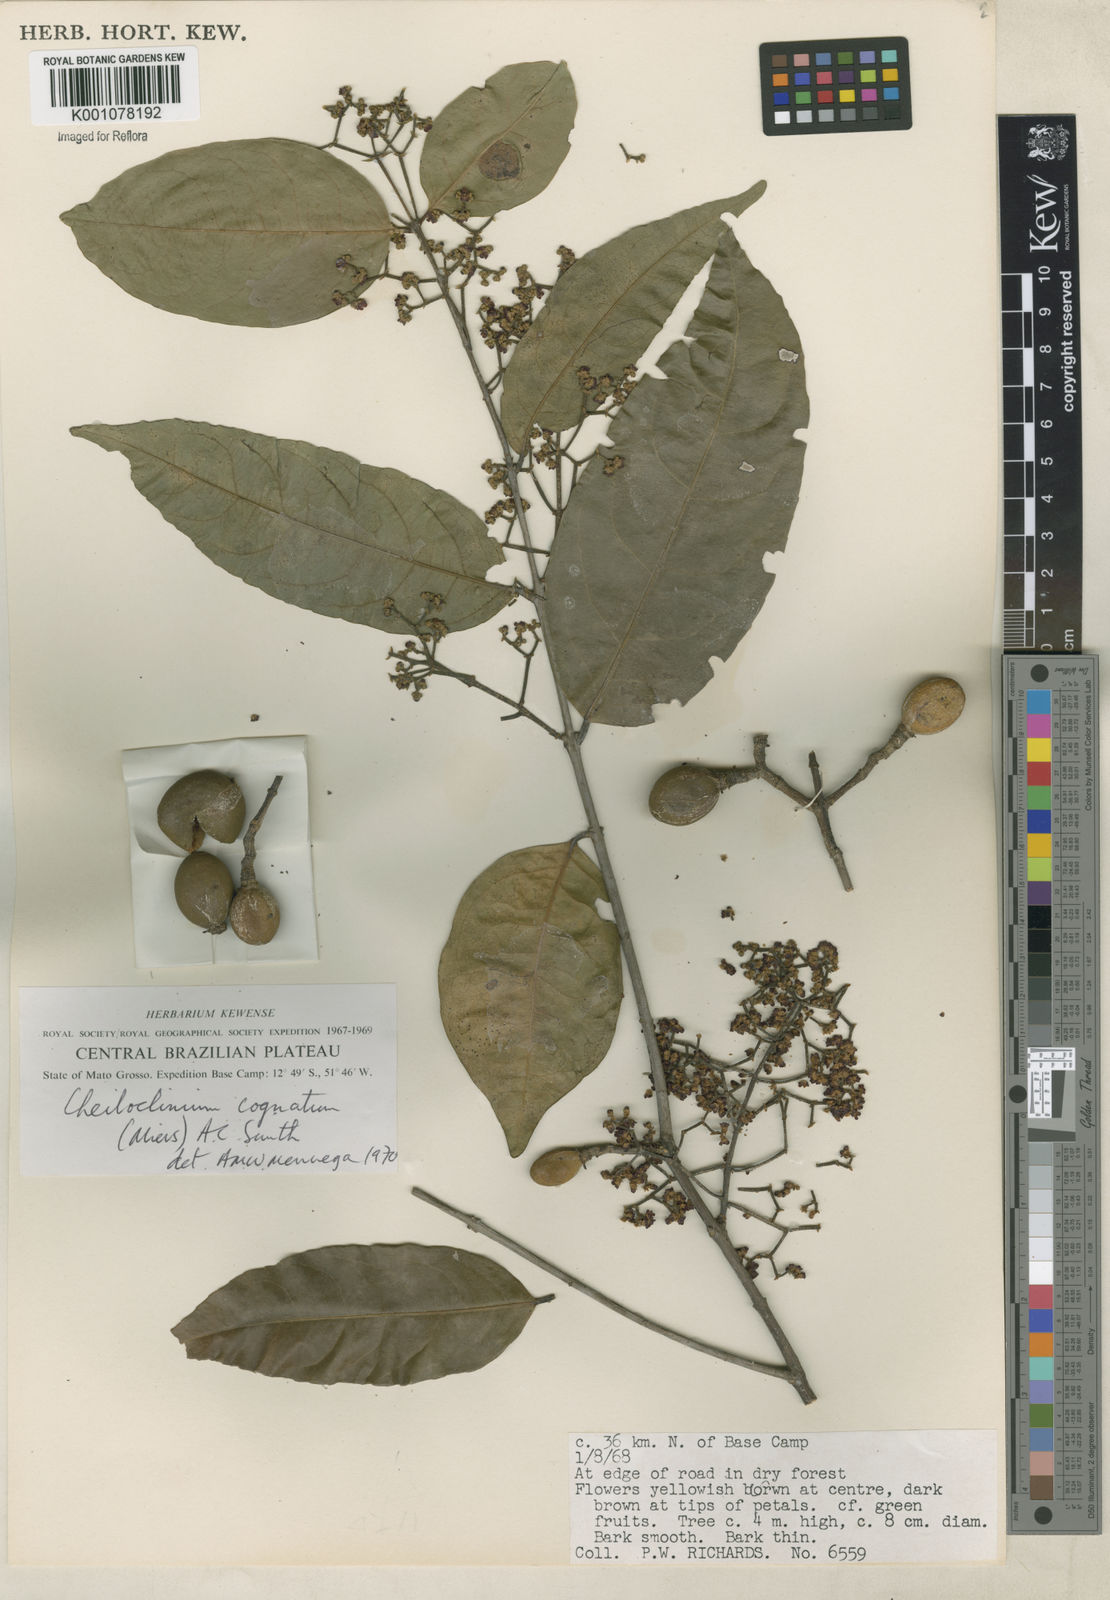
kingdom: Plantae
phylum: Tracheophyta
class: Magnoliopsida
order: Celastrales
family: Celastraceae
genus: Cheiloclinium
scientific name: Cheiloclinium cognatum
